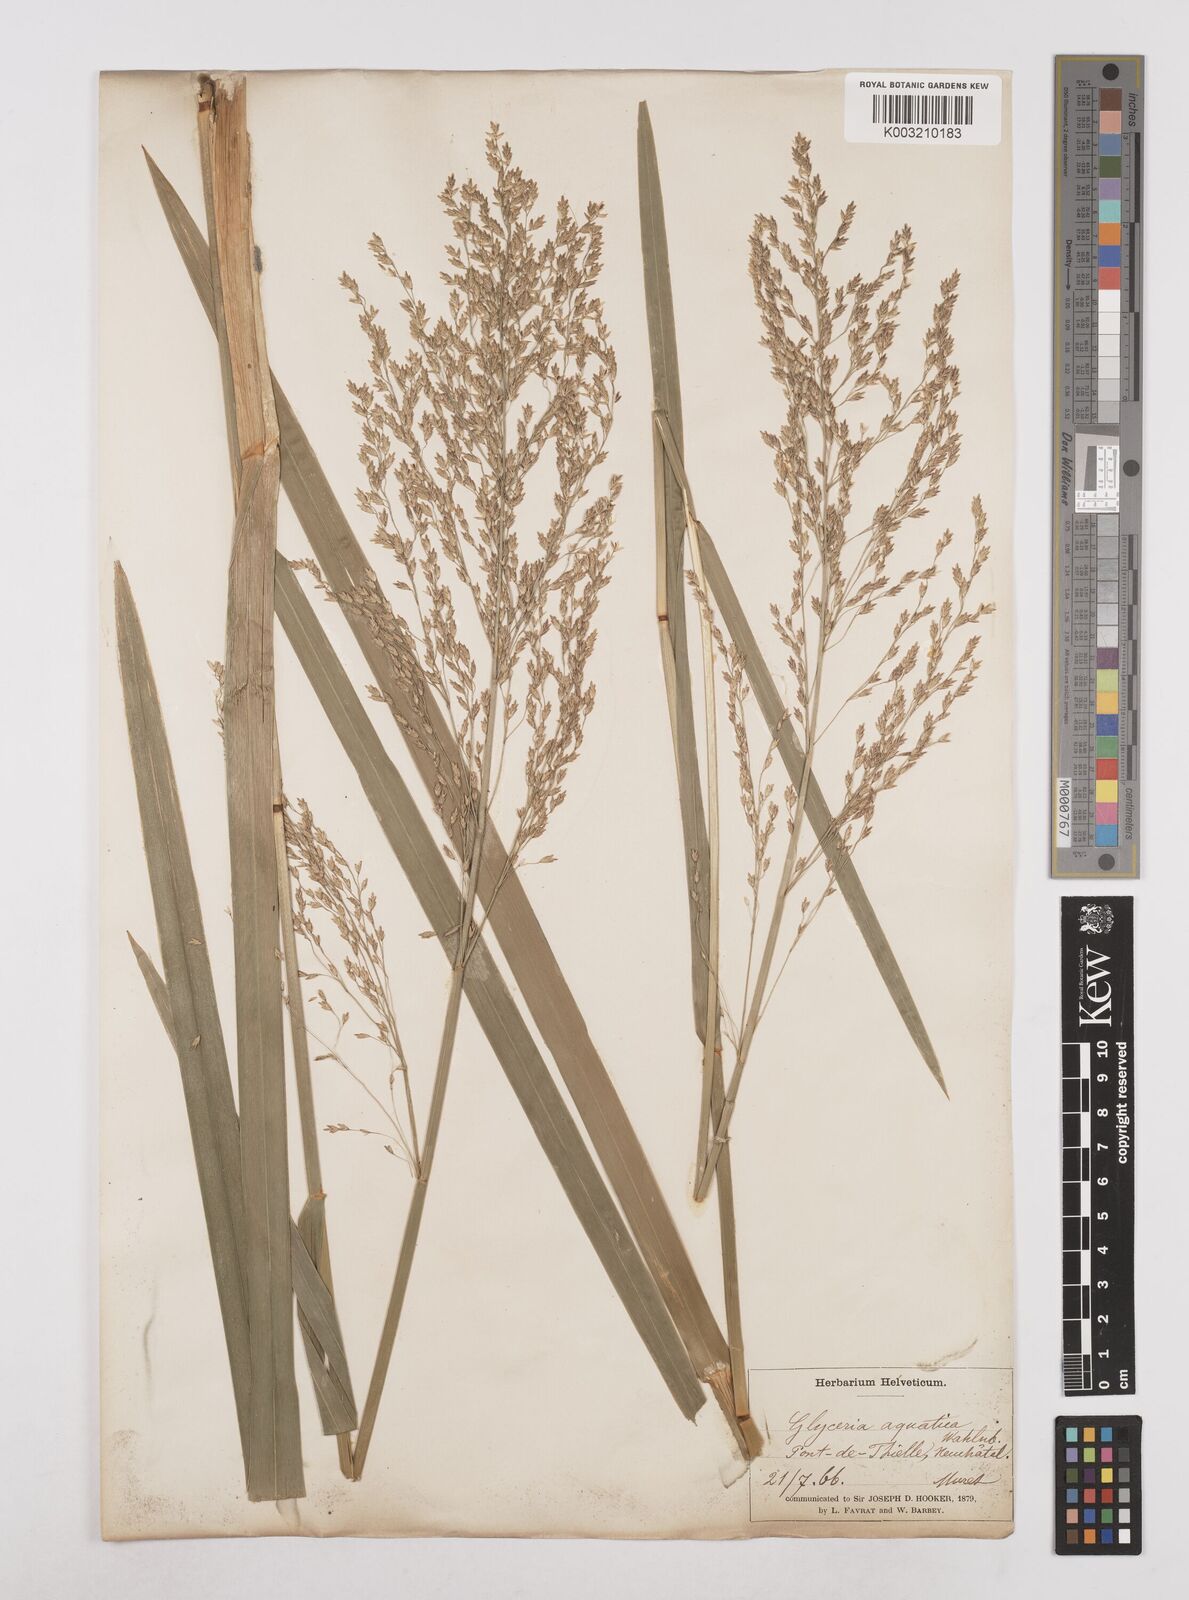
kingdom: Plantae
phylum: Tracheophyta
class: Liliopsida
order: Poales
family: Poaceae
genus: Glyceria
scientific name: Glyceria maxima
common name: Reed mannagrass
